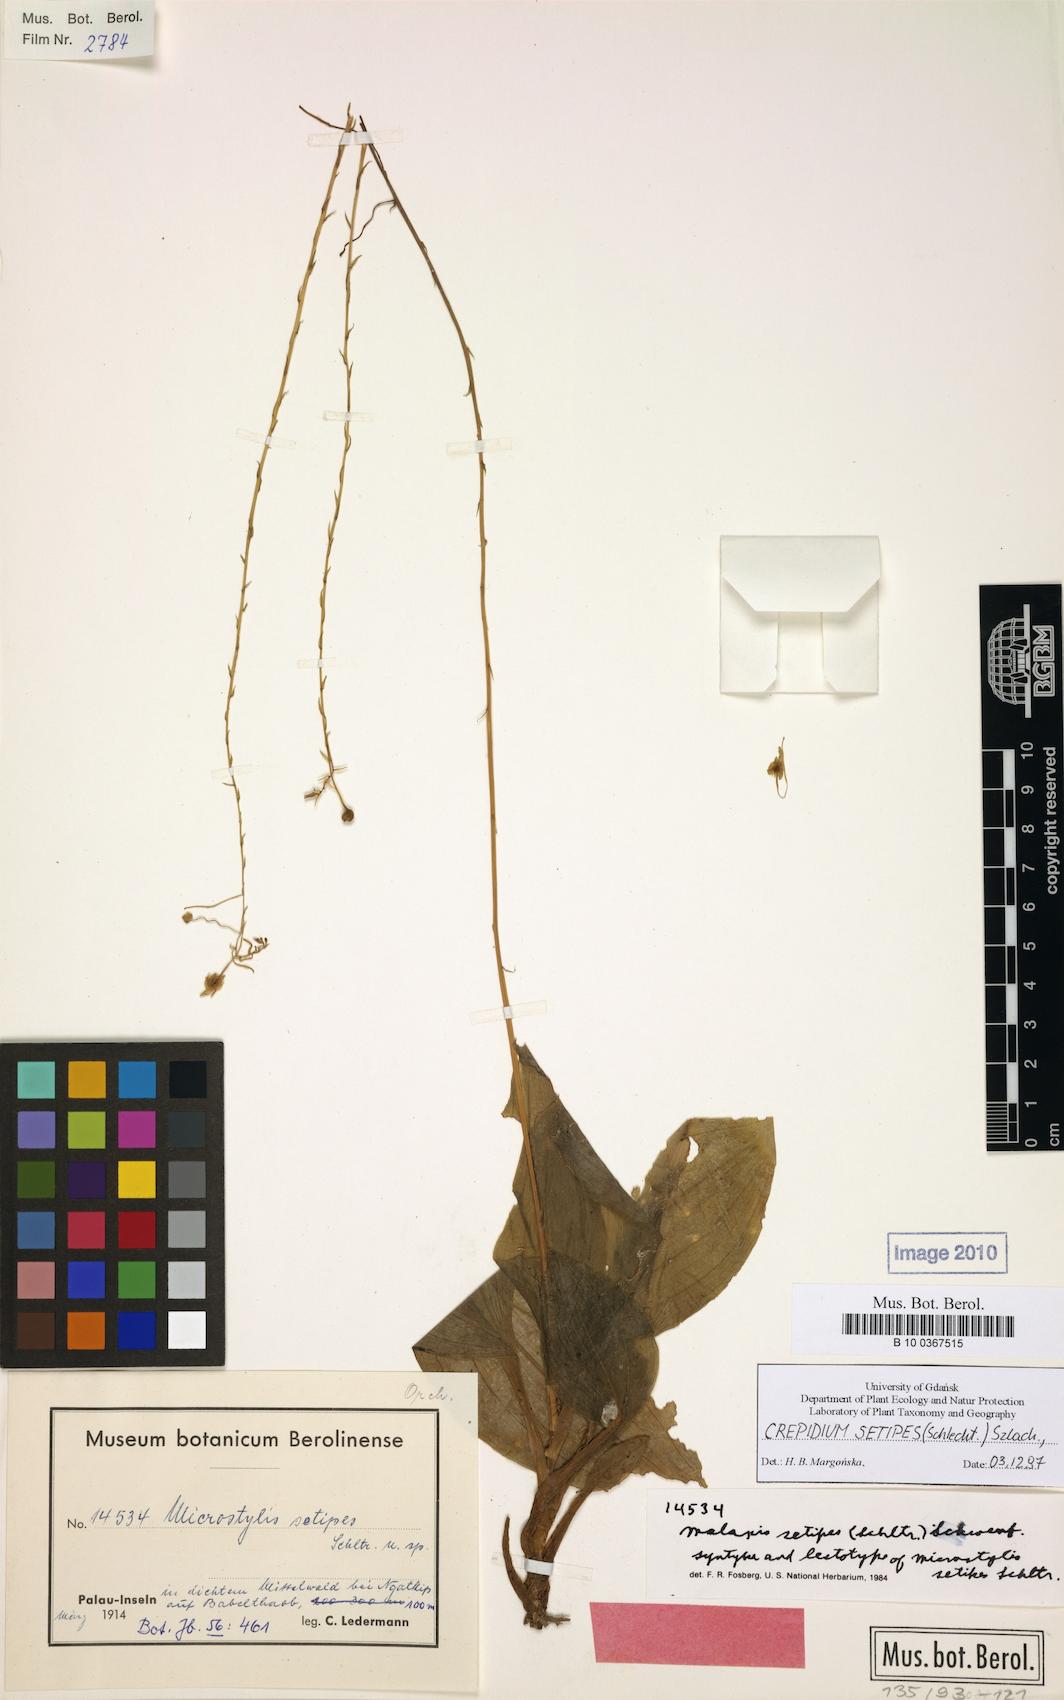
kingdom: Plantae
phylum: Tracheophyta
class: Liliopsida
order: Asparagales
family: Orchidaceae
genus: Crepidium
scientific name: Crepidium setipes
